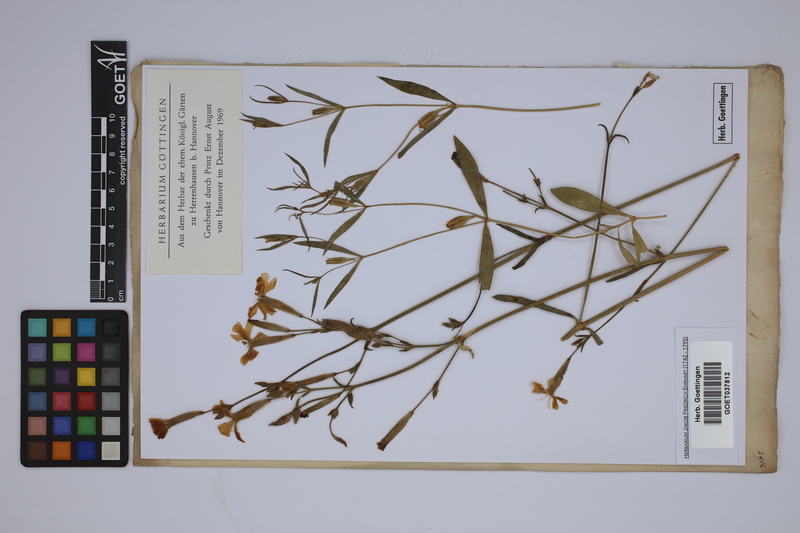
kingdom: Plantae
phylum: Tracheophyta
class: Magnoliopsida
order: Caryophyllales
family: Caryophyllaceae
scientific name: Caryophyllaceae
